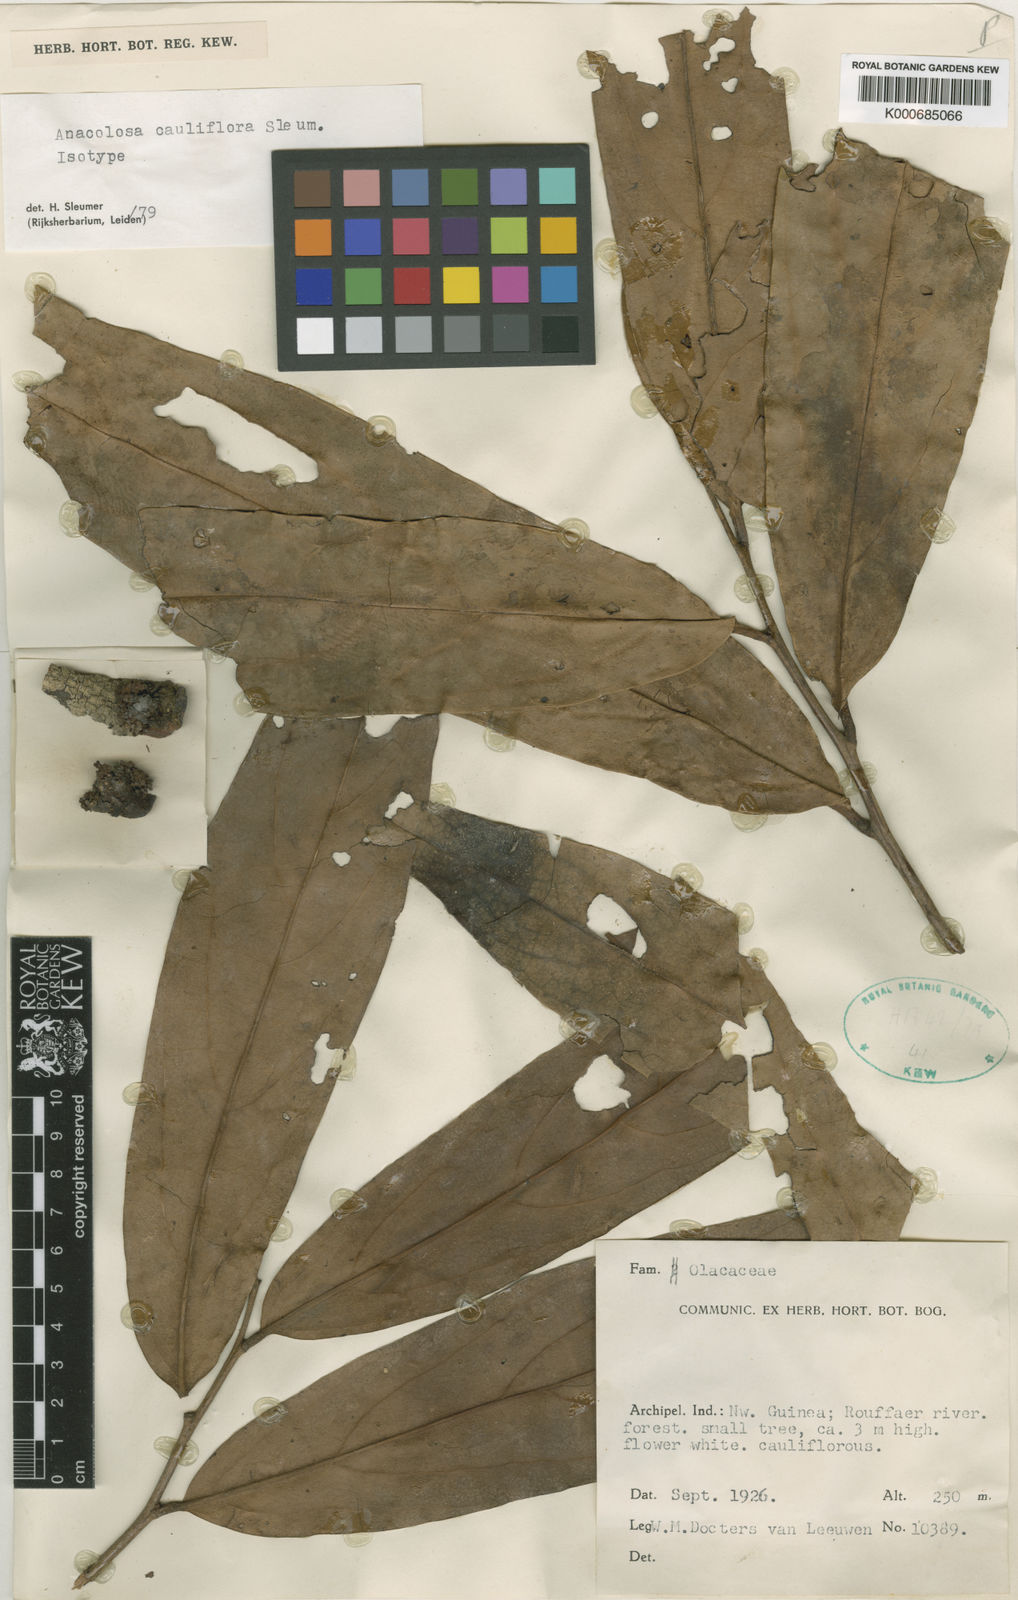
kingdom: Plantae
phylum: Tracheophyta
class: Magnoliopsida
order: Santalales
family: Aptandraceae
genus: Anacolosa
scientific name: Anacolosa cauliflora
